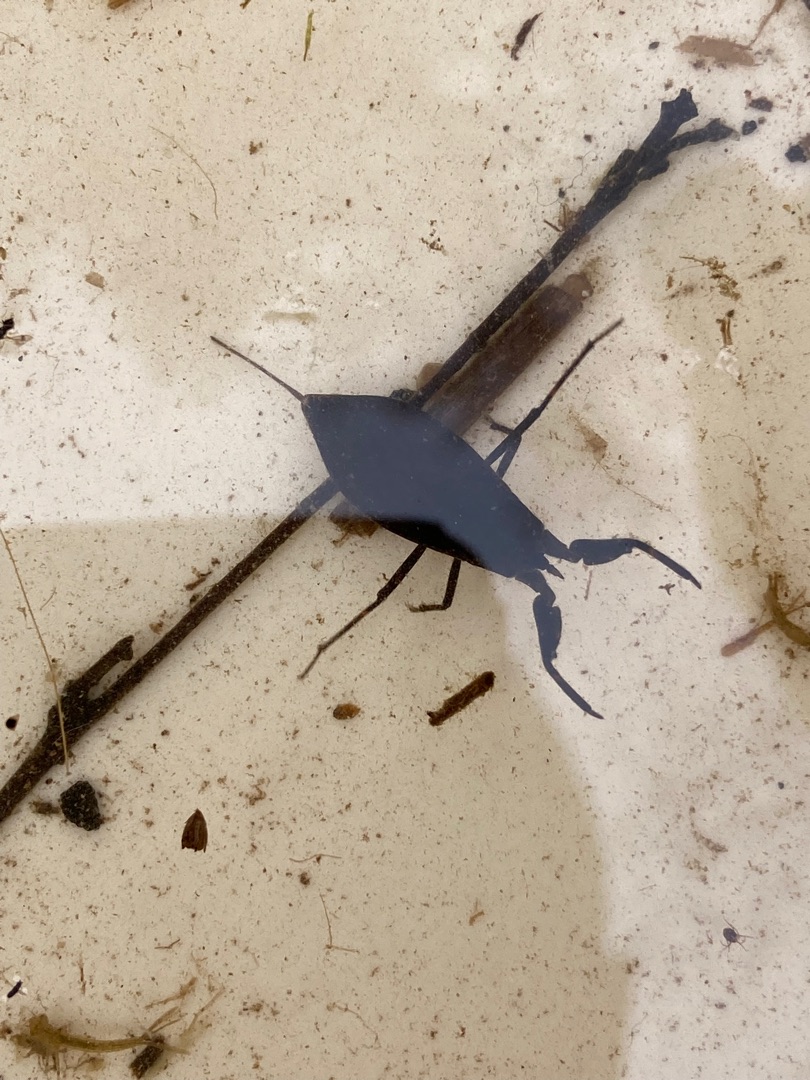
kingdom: Animalia
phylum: Arthropoda
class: Insecta
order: Hemiptera
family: Nepidae
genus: Nepa
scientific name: Nepa cinerea
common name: Skorpiontæge
